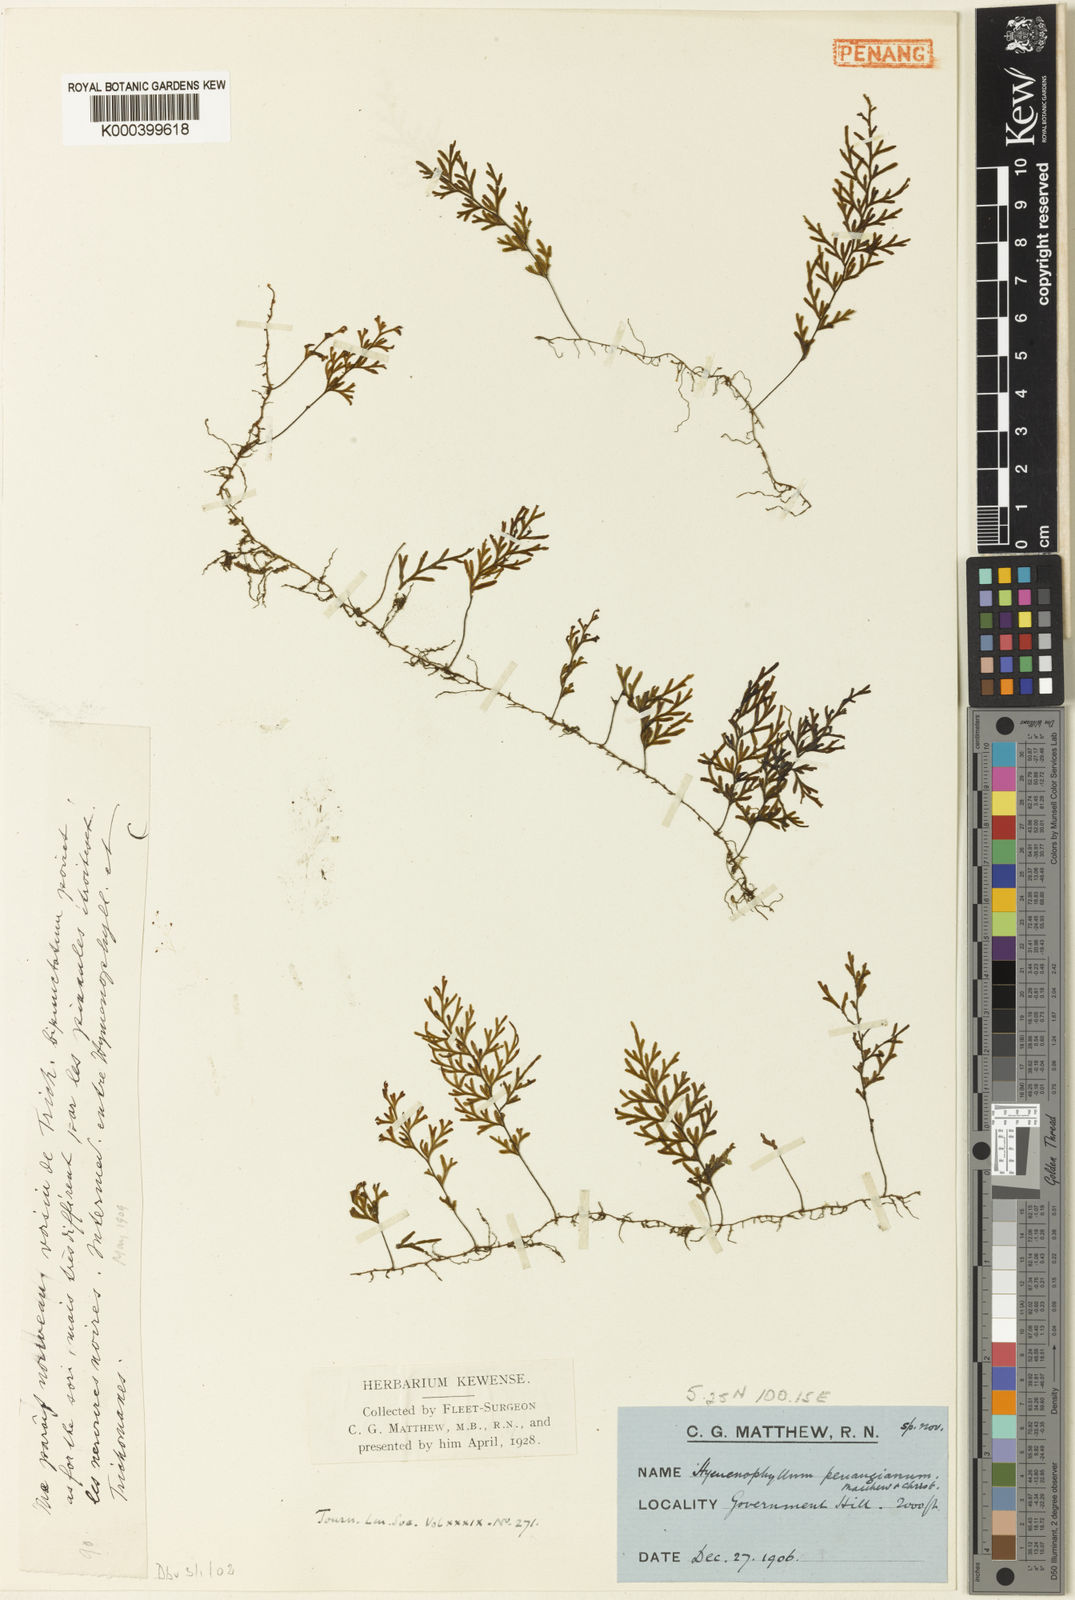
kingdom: Plantae
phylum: Tracheophyta
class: Polypodiopsida
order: Hymenophyllales
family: Hymenophyllaceae
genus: Hymenophyllum
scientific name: Hymenophyllum penangianum
